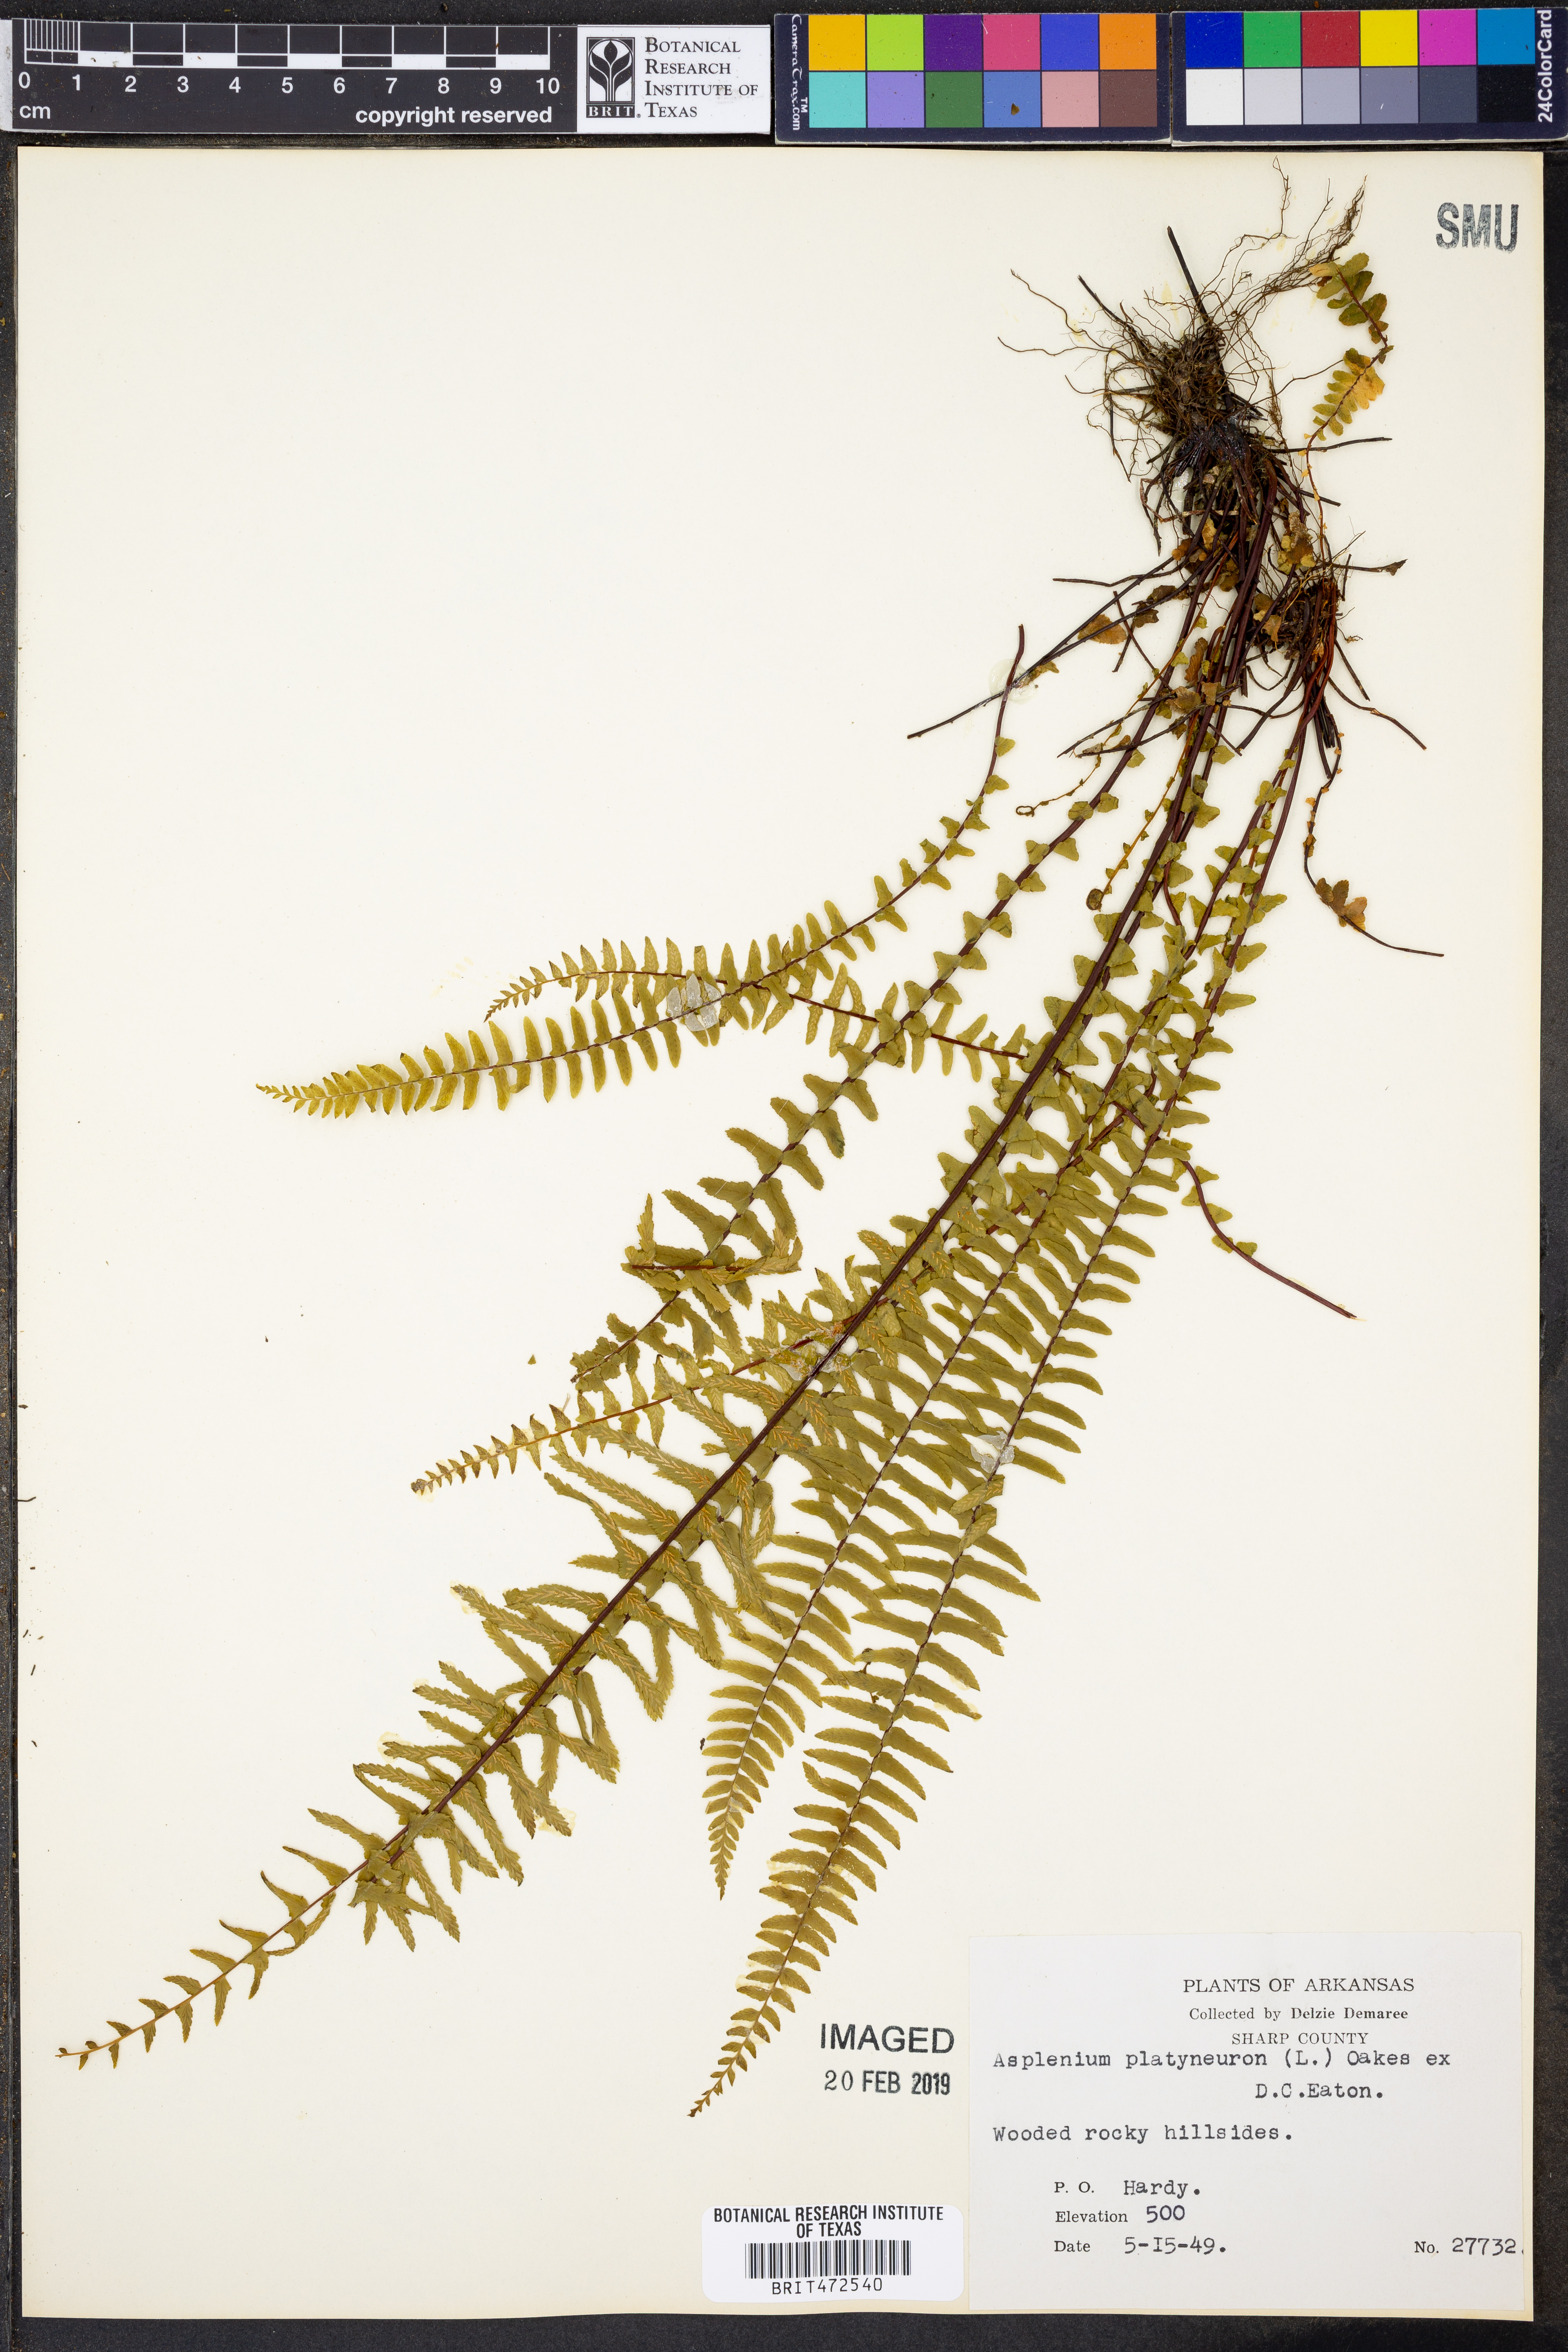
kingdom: Plantae
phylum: Tracheophyta
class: Polypodiopsida
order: Polypodiales
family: Aspleniaceae
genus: Asplenium
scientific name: Asplenium platyneuron
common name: Ebony spleenwort
